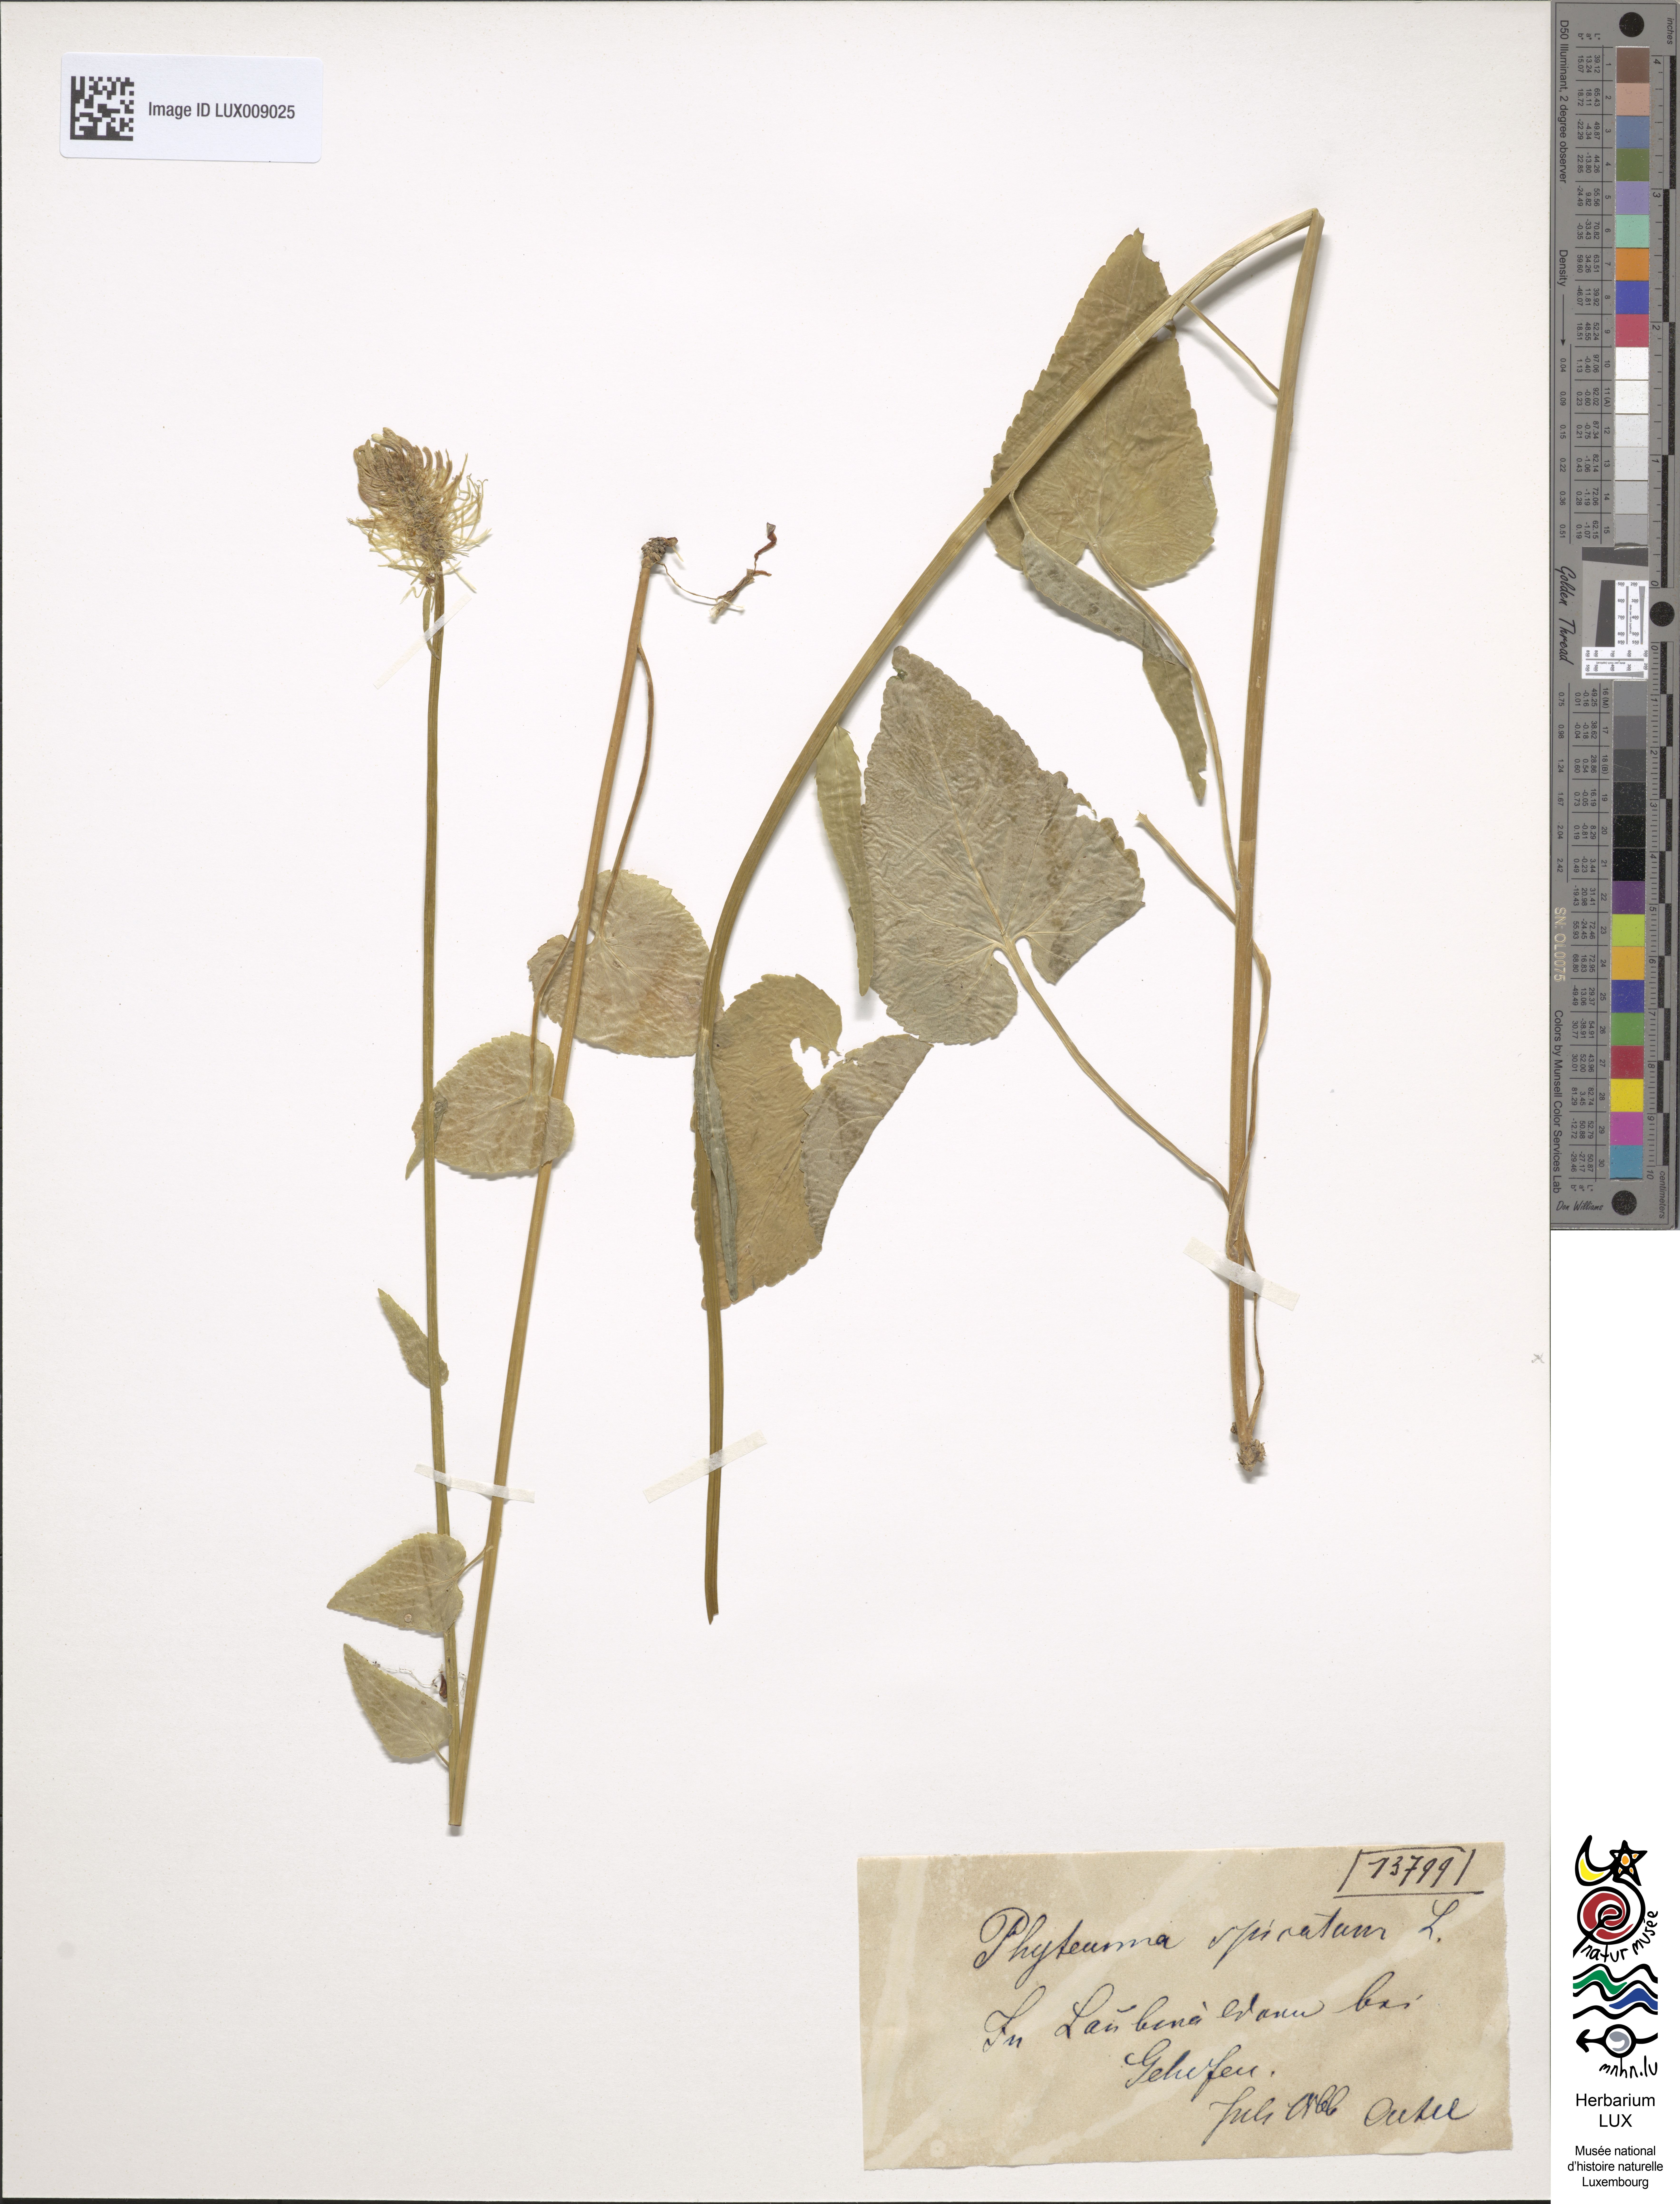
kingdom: Plantae
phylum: Tracheophyta
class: Magnoliopsida
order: Asterales
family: Campanulaceae
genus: Phyteuma
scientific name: Phyteuma spicatum
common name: Spiked rampion
